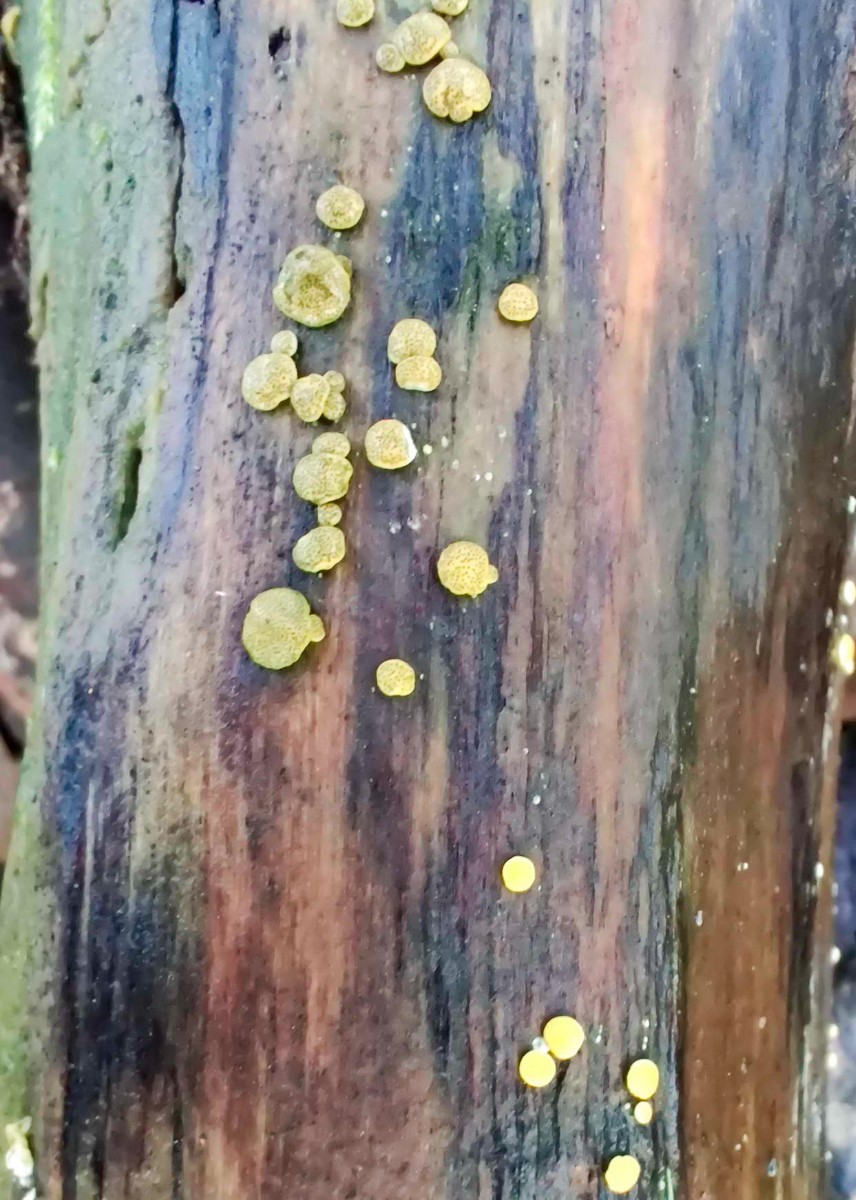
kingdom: Fungi
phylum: Ascomycota
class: Sordariomycetes
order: Hypocreales
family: Hypocreaceae
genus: Trichoderma
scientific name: Trichoderma aureoviride
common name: æggegul kødkerne
